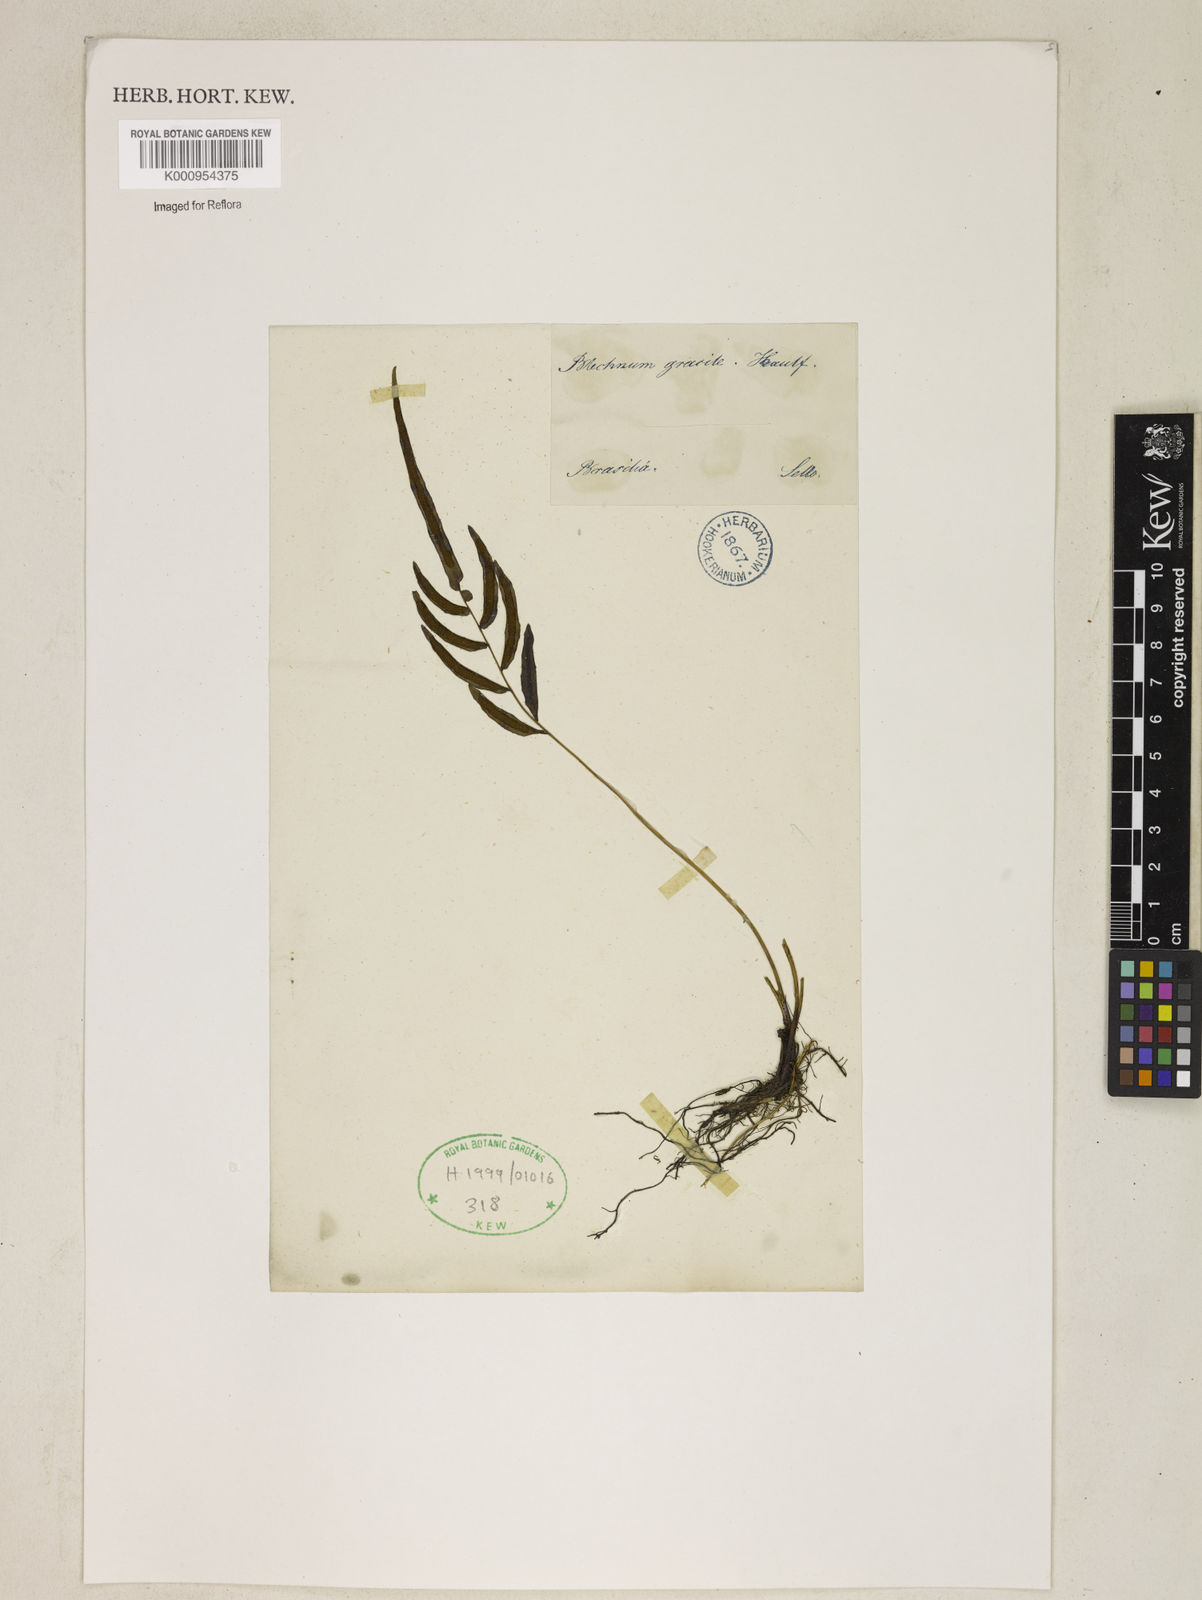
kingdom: Plantae
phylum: Tracheophyta
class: Polypodiopsida
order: Polypodiales
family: Blechnaceae
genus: Blechnum
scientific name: Blechnum gracile
